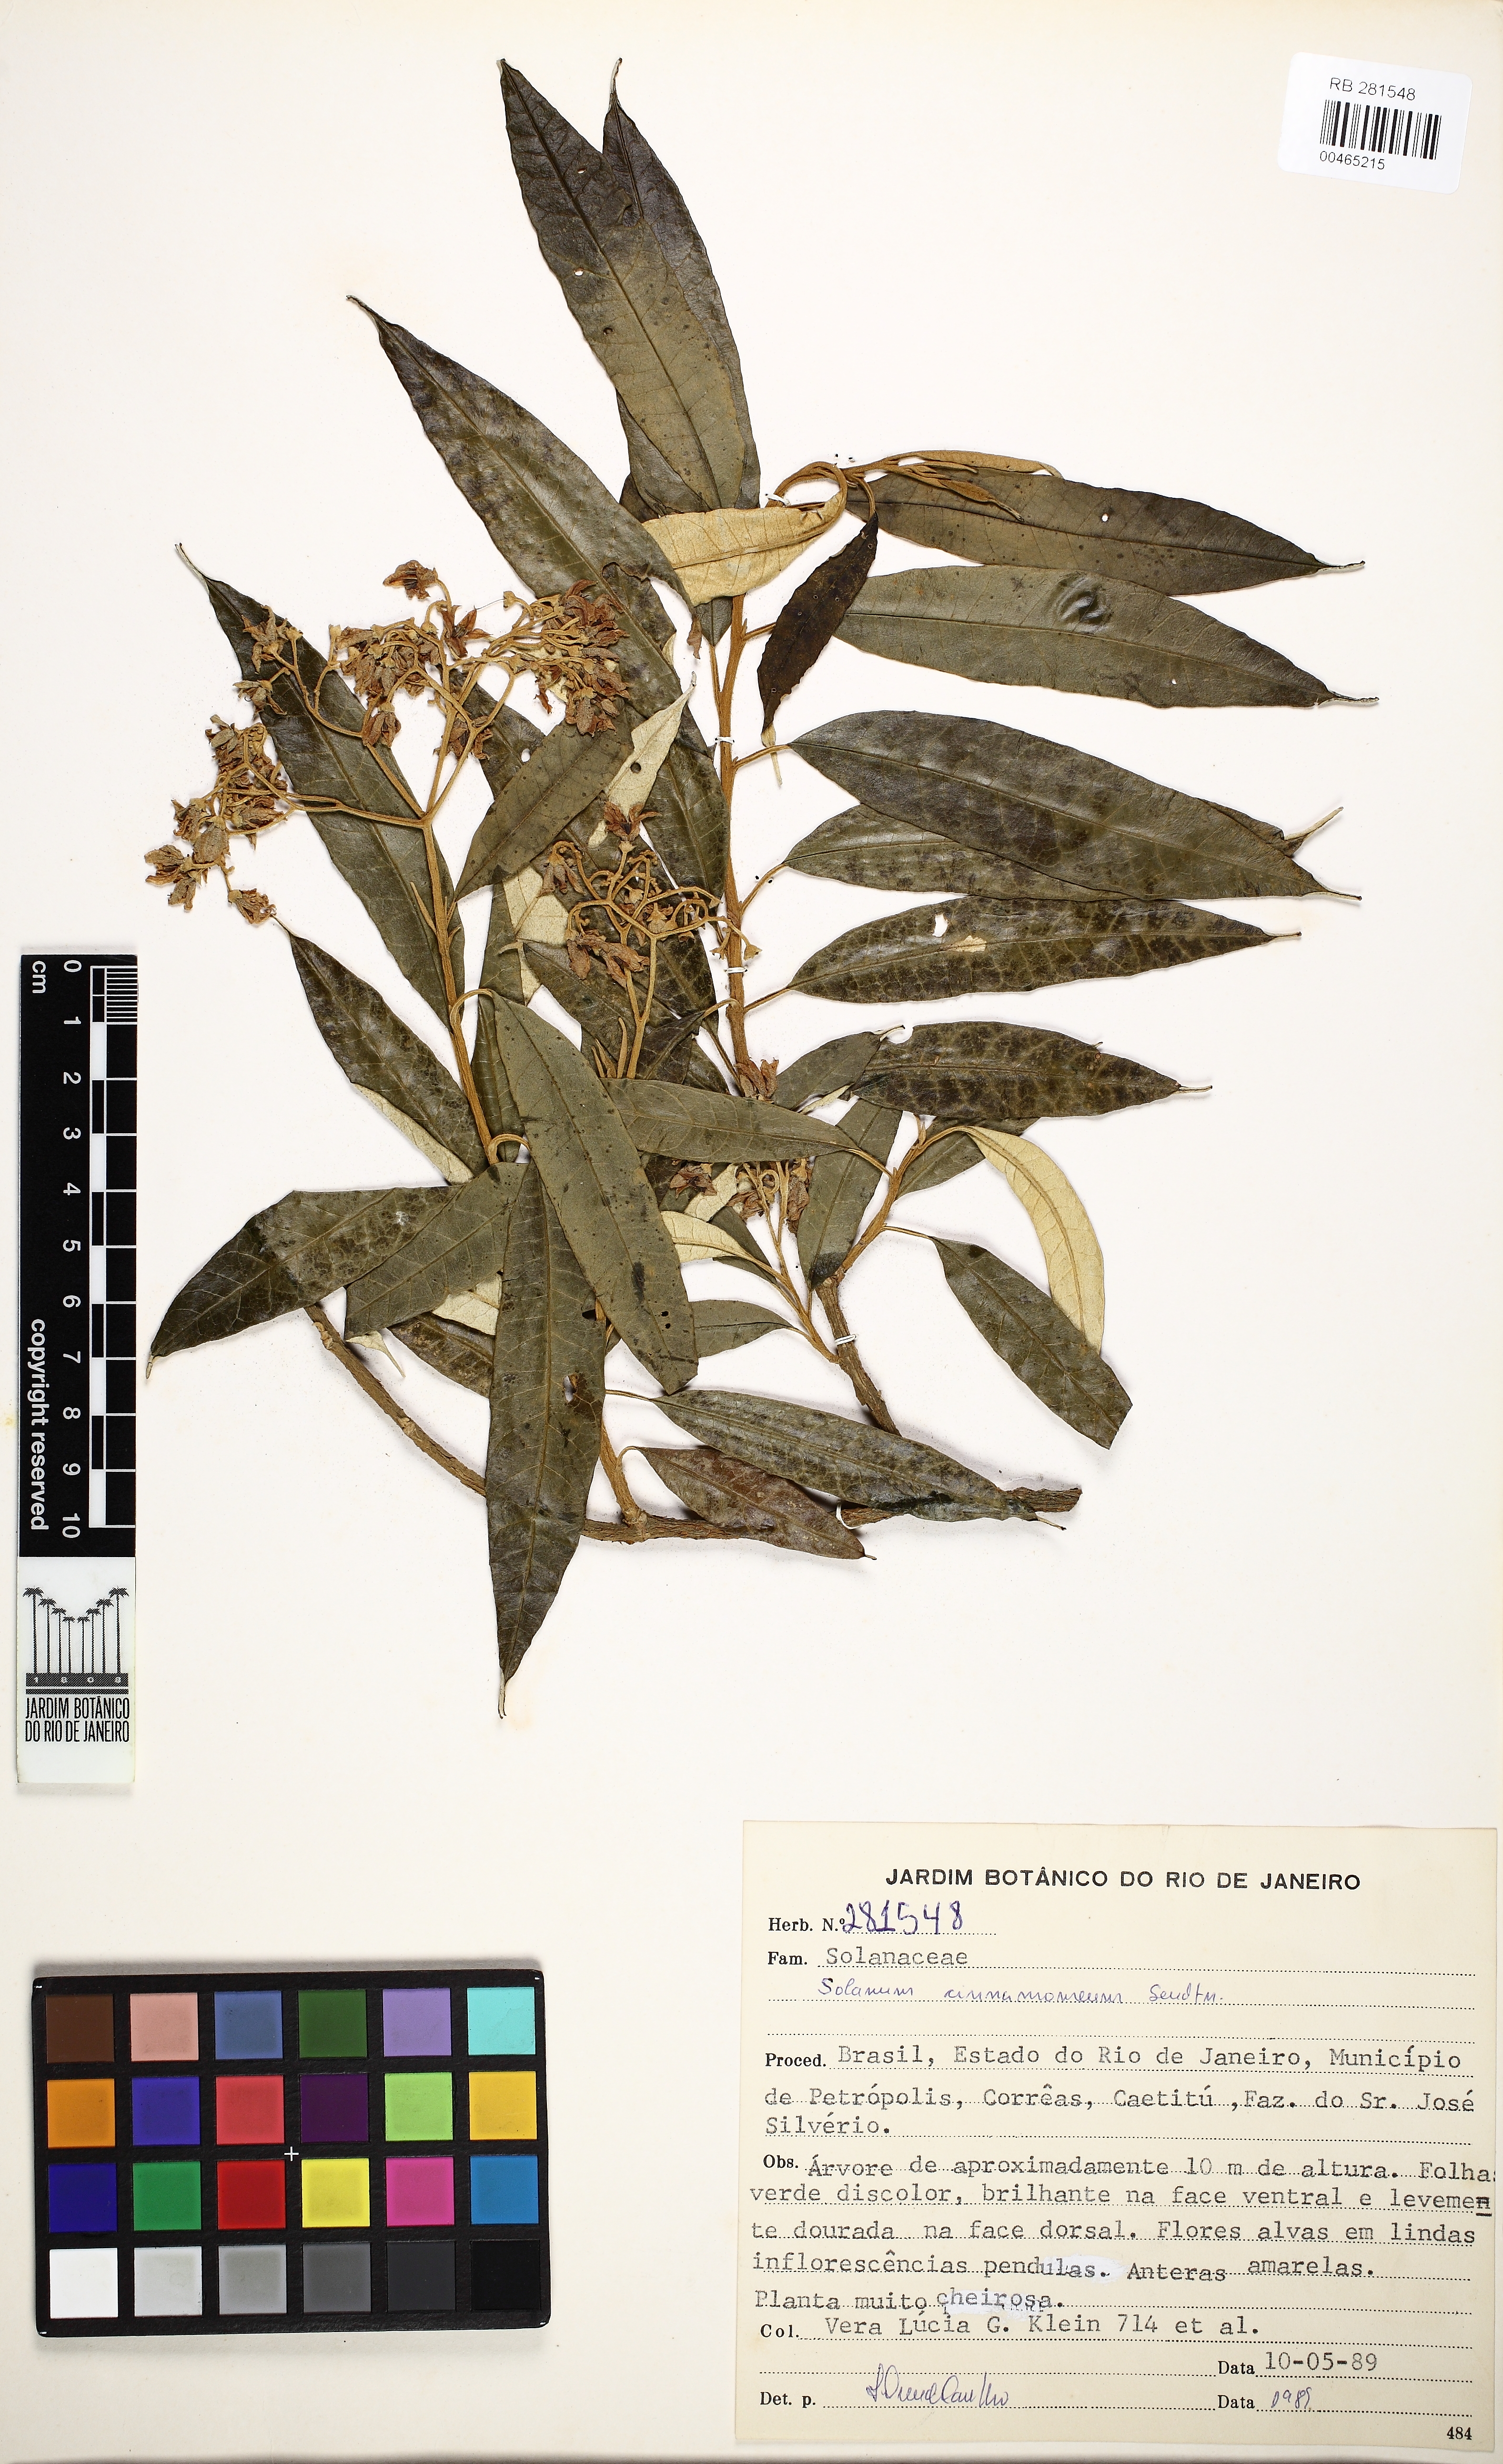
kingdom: Plantae
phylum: Tracheophyta
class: Magnoliopsida
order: Solanales
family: Solanaceae
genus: Solanum
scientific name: Solanum cinnamomeum
